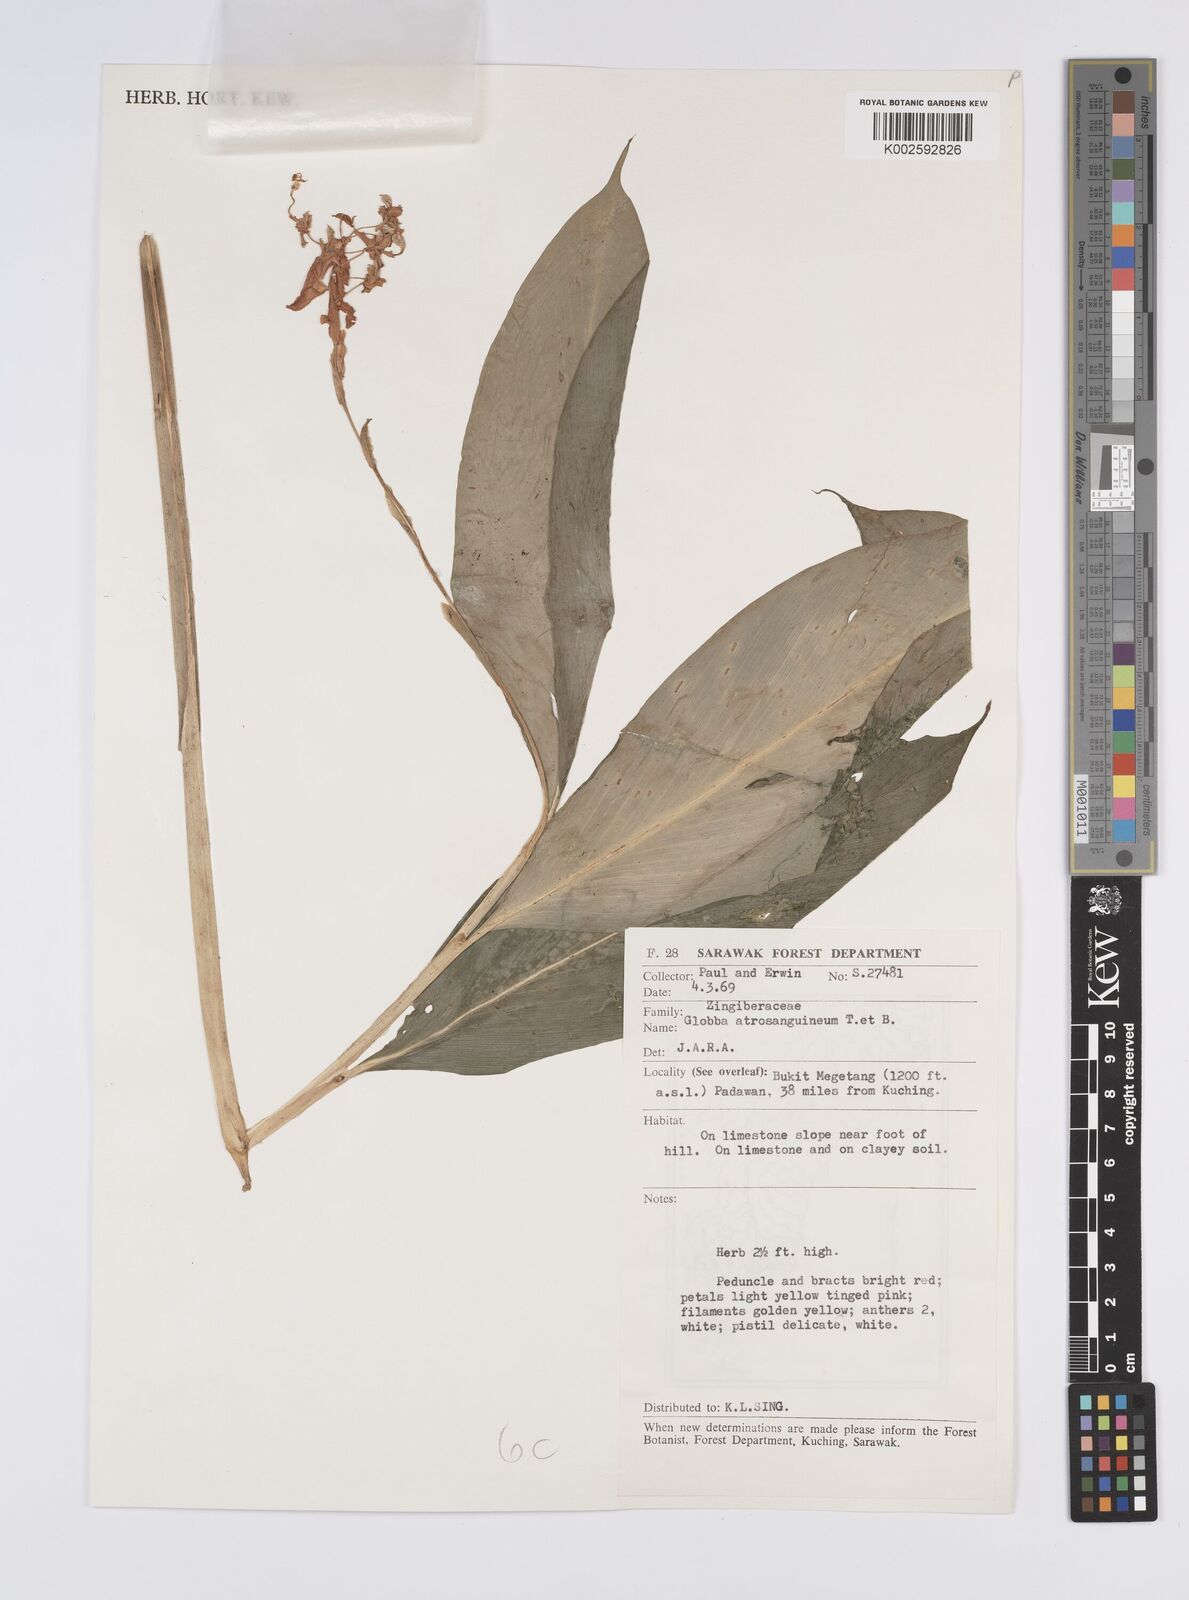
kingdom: Plantae
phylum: Tracheophyta
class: Liliopsida
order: Zingiberales
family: Zingiberaceae
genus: Globba
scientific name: Globba atrosanguinea
